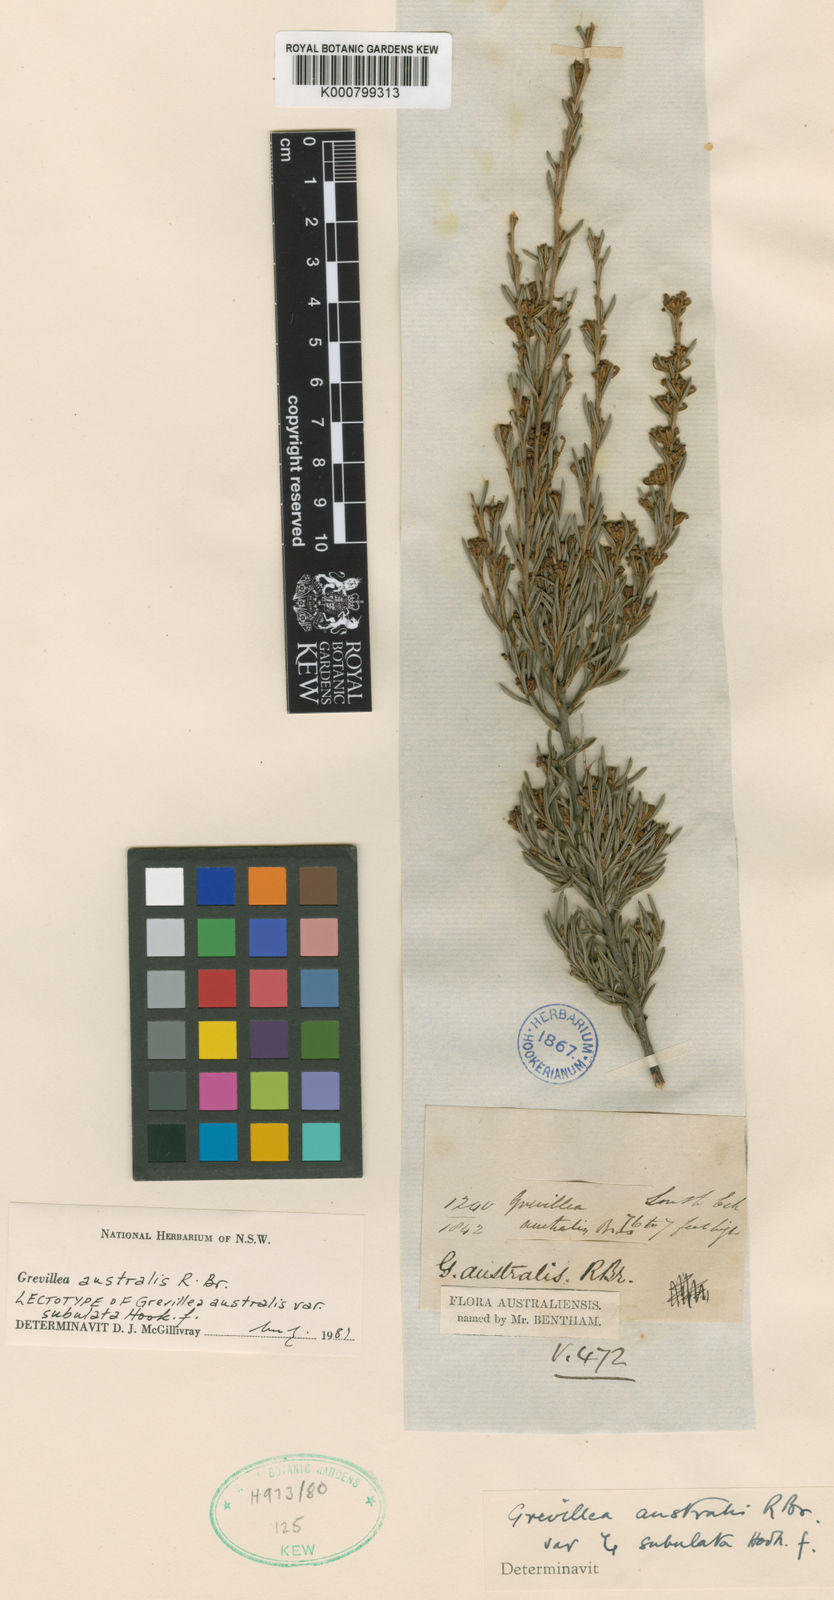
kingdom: Plantae
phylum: Tracheophyta
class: Magnoliopsida
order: Proteales
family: Proteaceae
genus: Grevillea
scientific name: Grevillea australis
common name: Alpine grevillea
